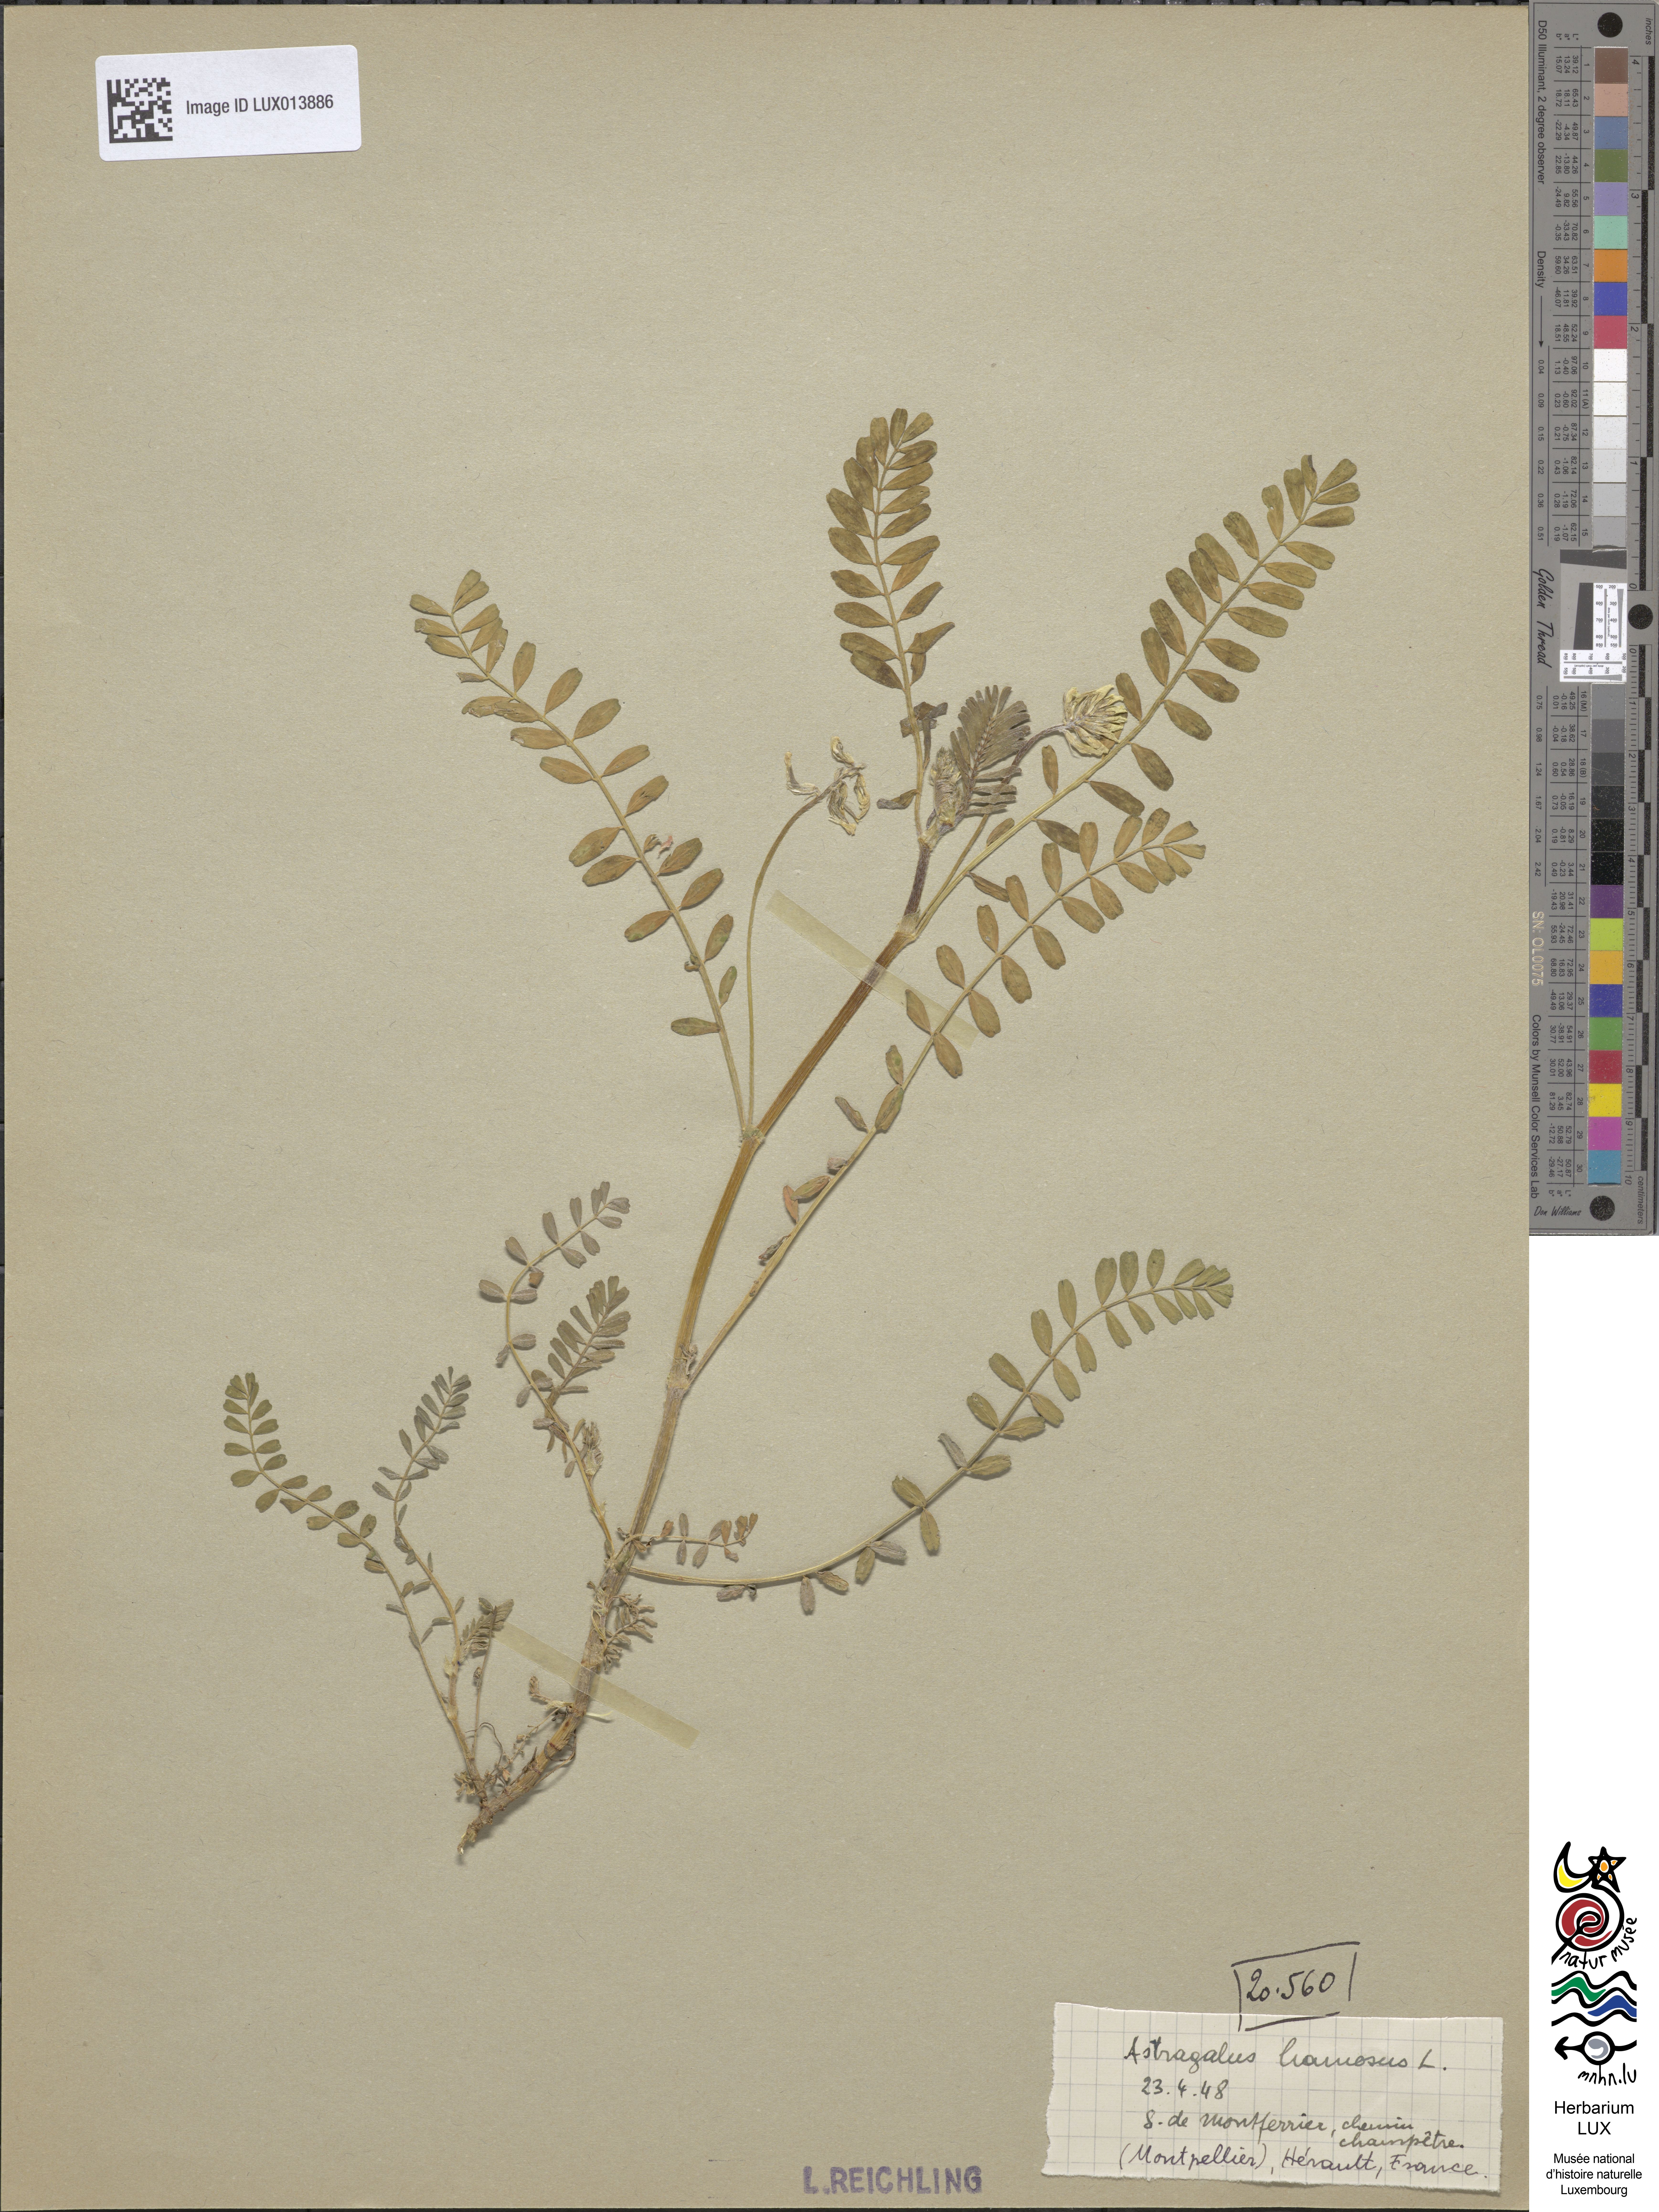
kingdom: Plantae
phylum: Tracheophyta
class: Magnoliopsida
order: Fabales
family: Fabaceae
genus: Astragalus
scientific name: Astragalus hamosus
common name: European milkvetch
